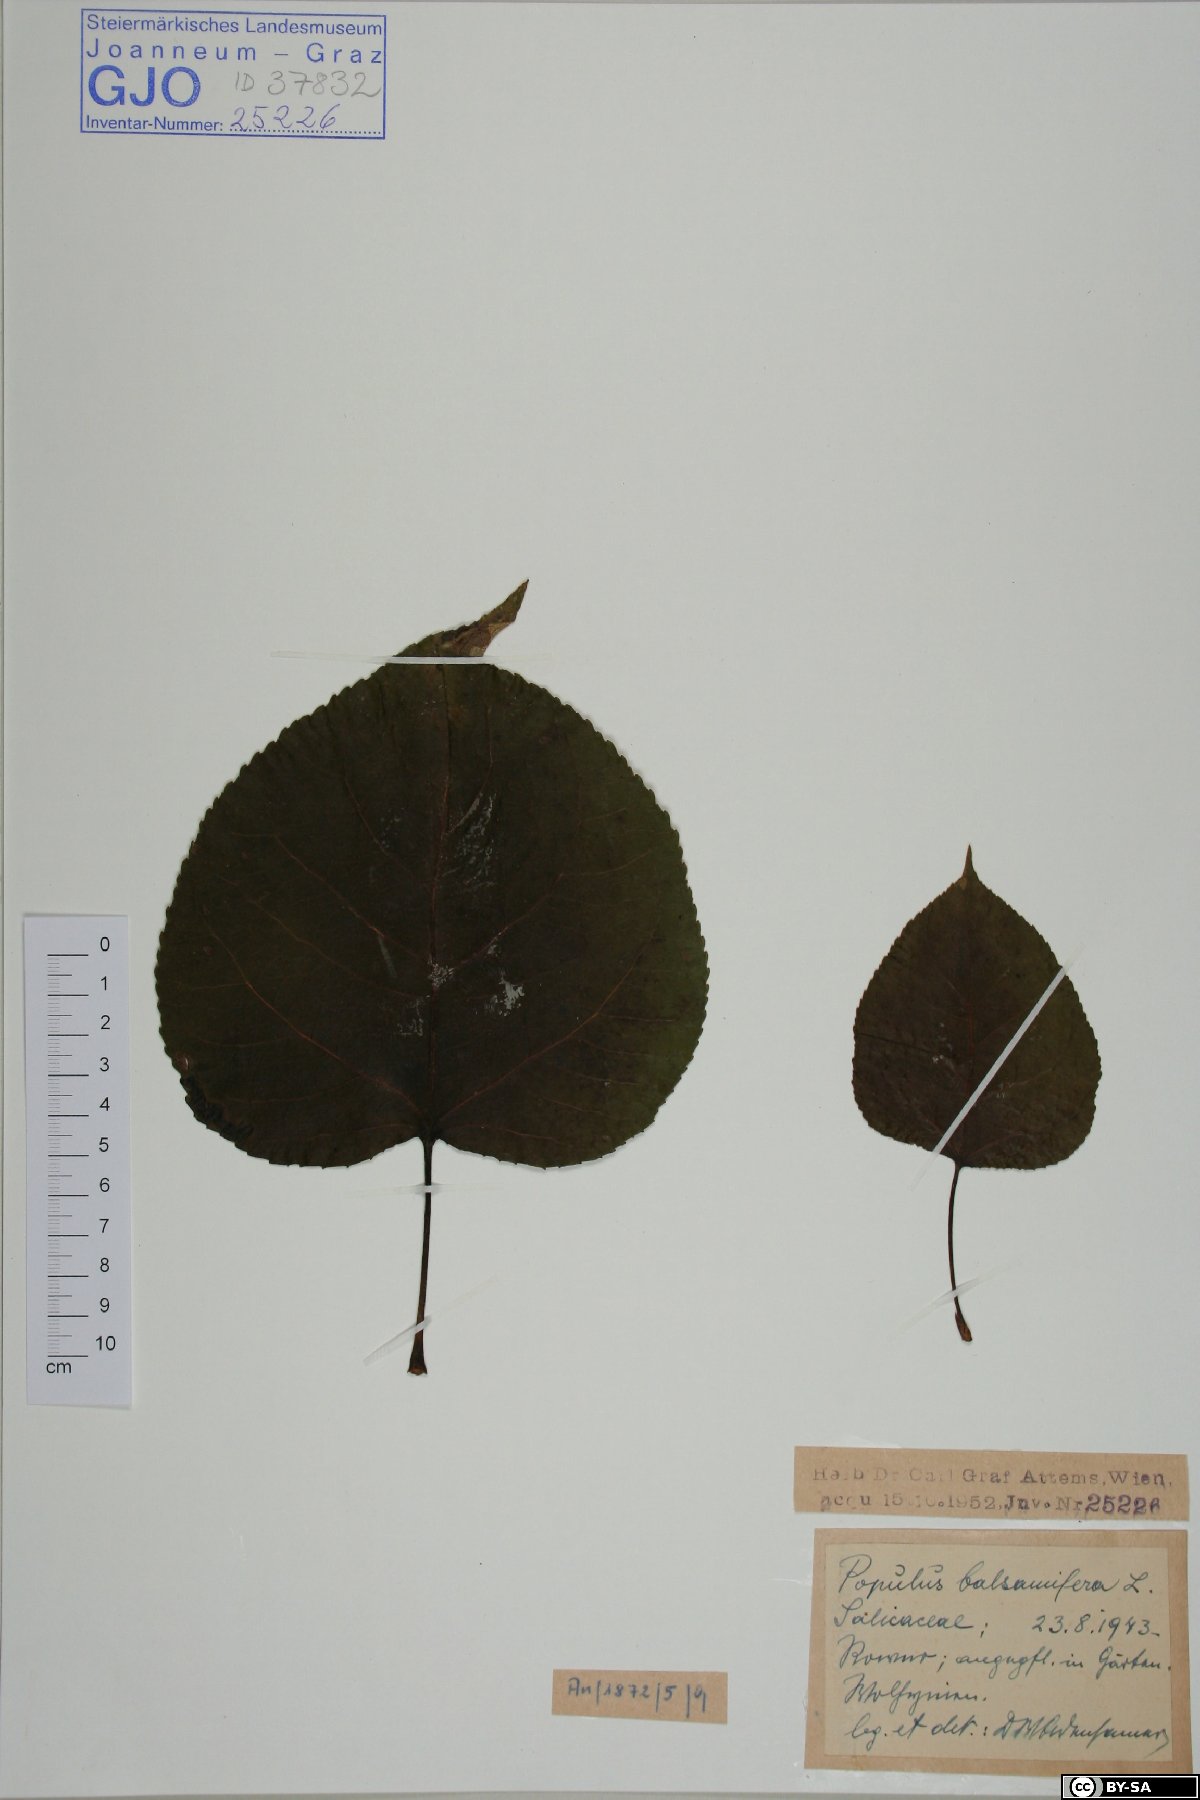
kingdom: Plantae
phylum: Tracheophyta
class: Magnoliopsida
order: Malpighiales
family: Salicaceae
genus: Populus
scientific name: Populus balsamifera
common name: Balsam poplar
